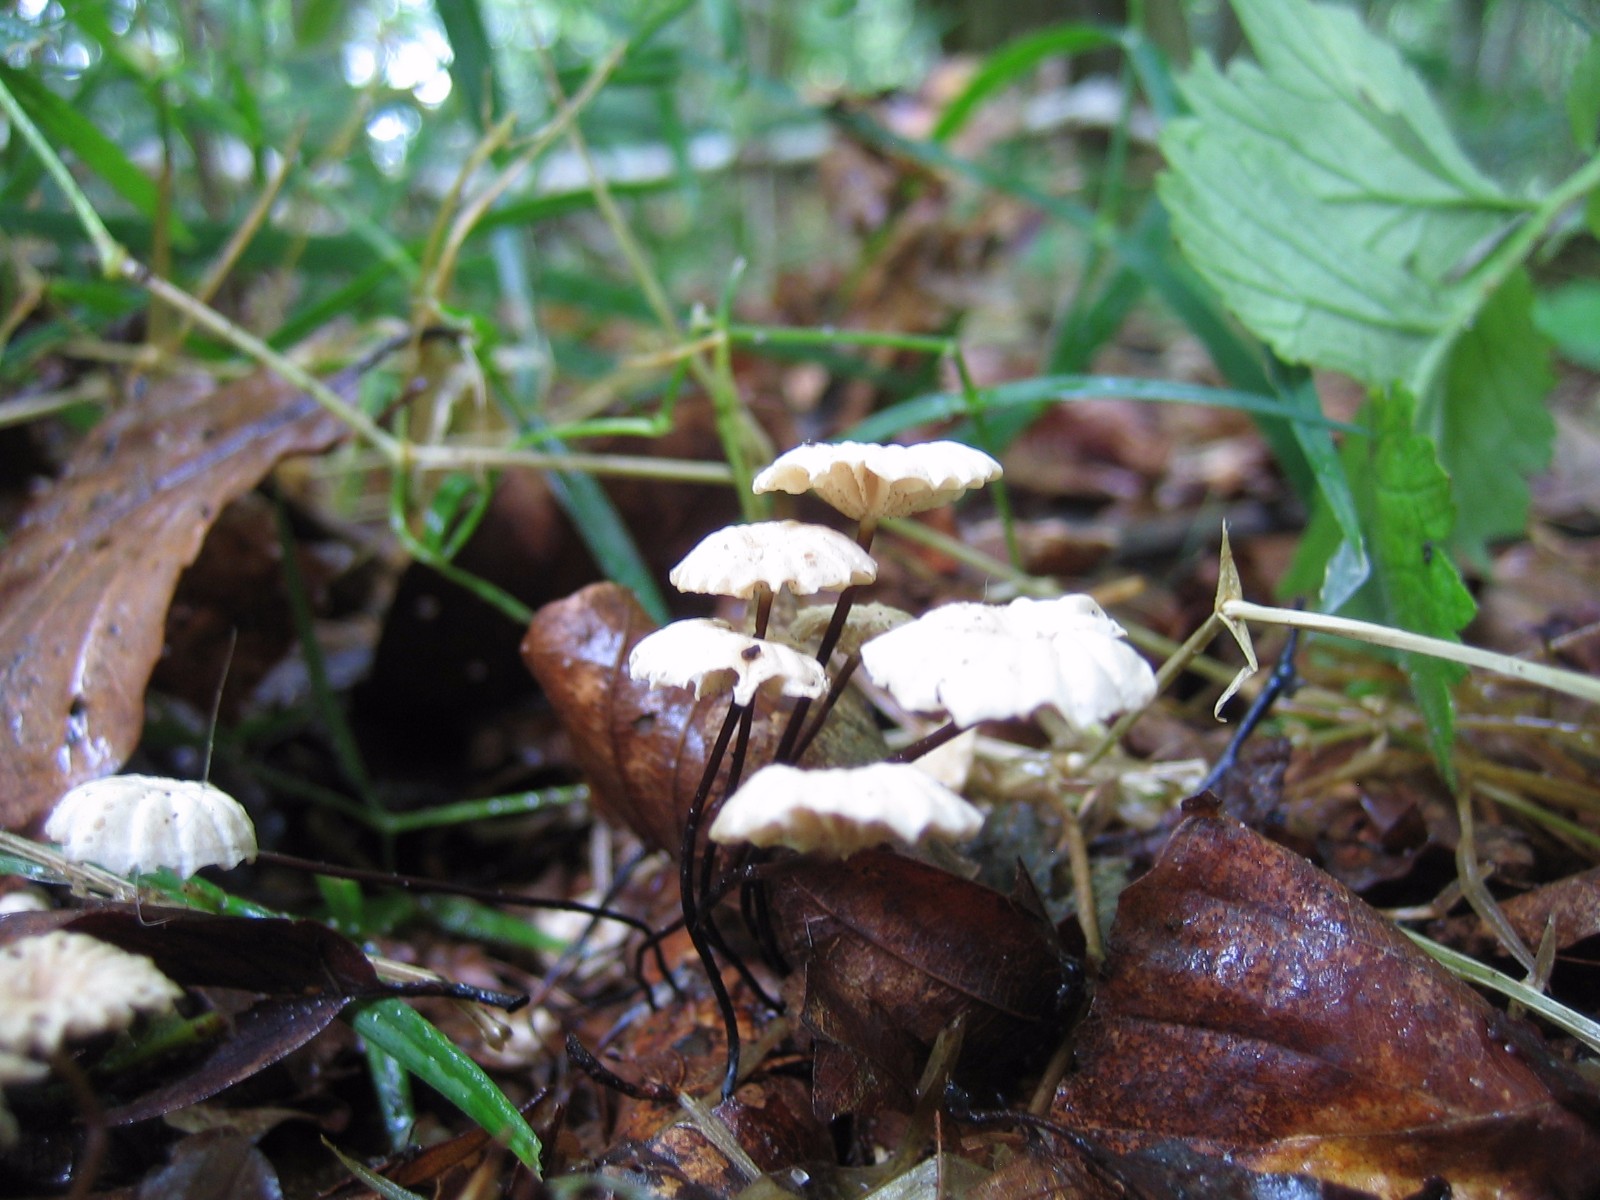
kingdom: Fungi
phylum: Basidiomycota
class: Agaricomycetes
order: Agaricales
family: Marasmiaceae
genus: Marasmius
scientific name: Marasmius rotula
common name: hjul-bruskhat
